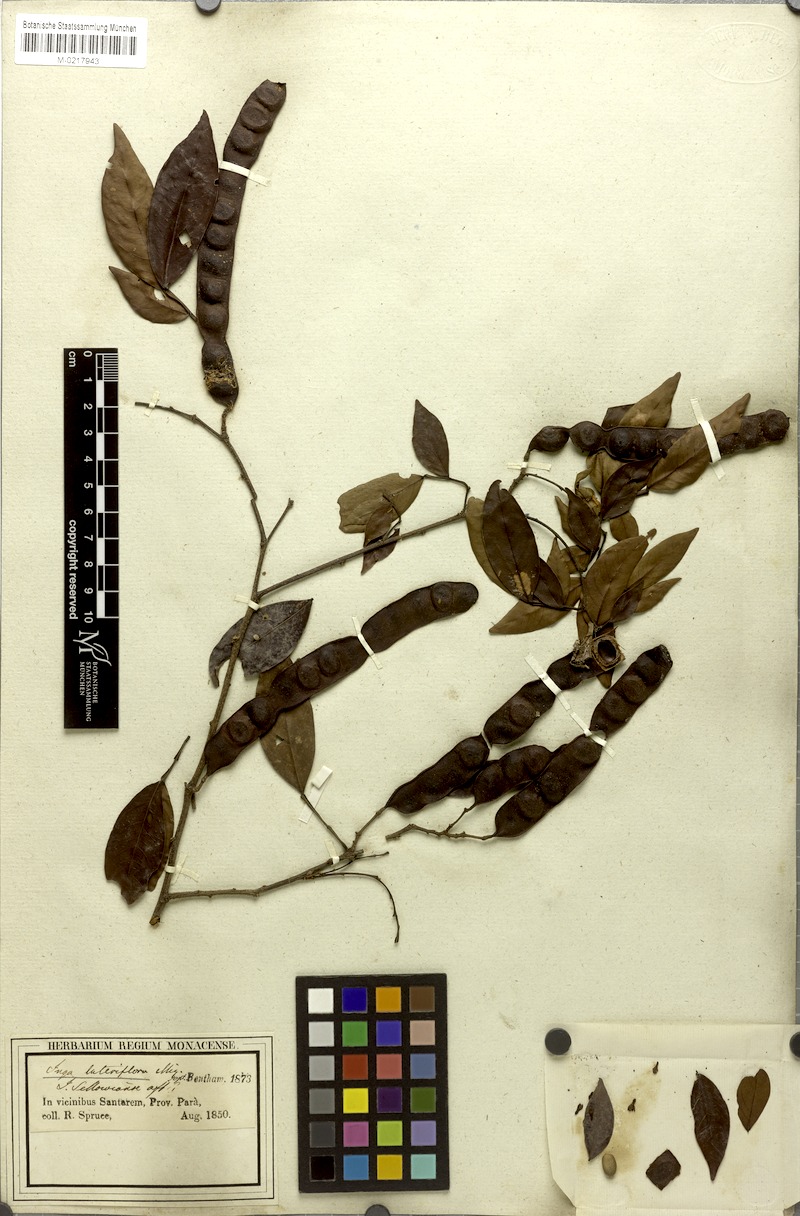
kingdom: Plantae
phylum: Tracheophyta
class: Magnoliopsida
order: Fabales
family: Fabaceae
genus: Inga
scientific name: Inga lateriflora
